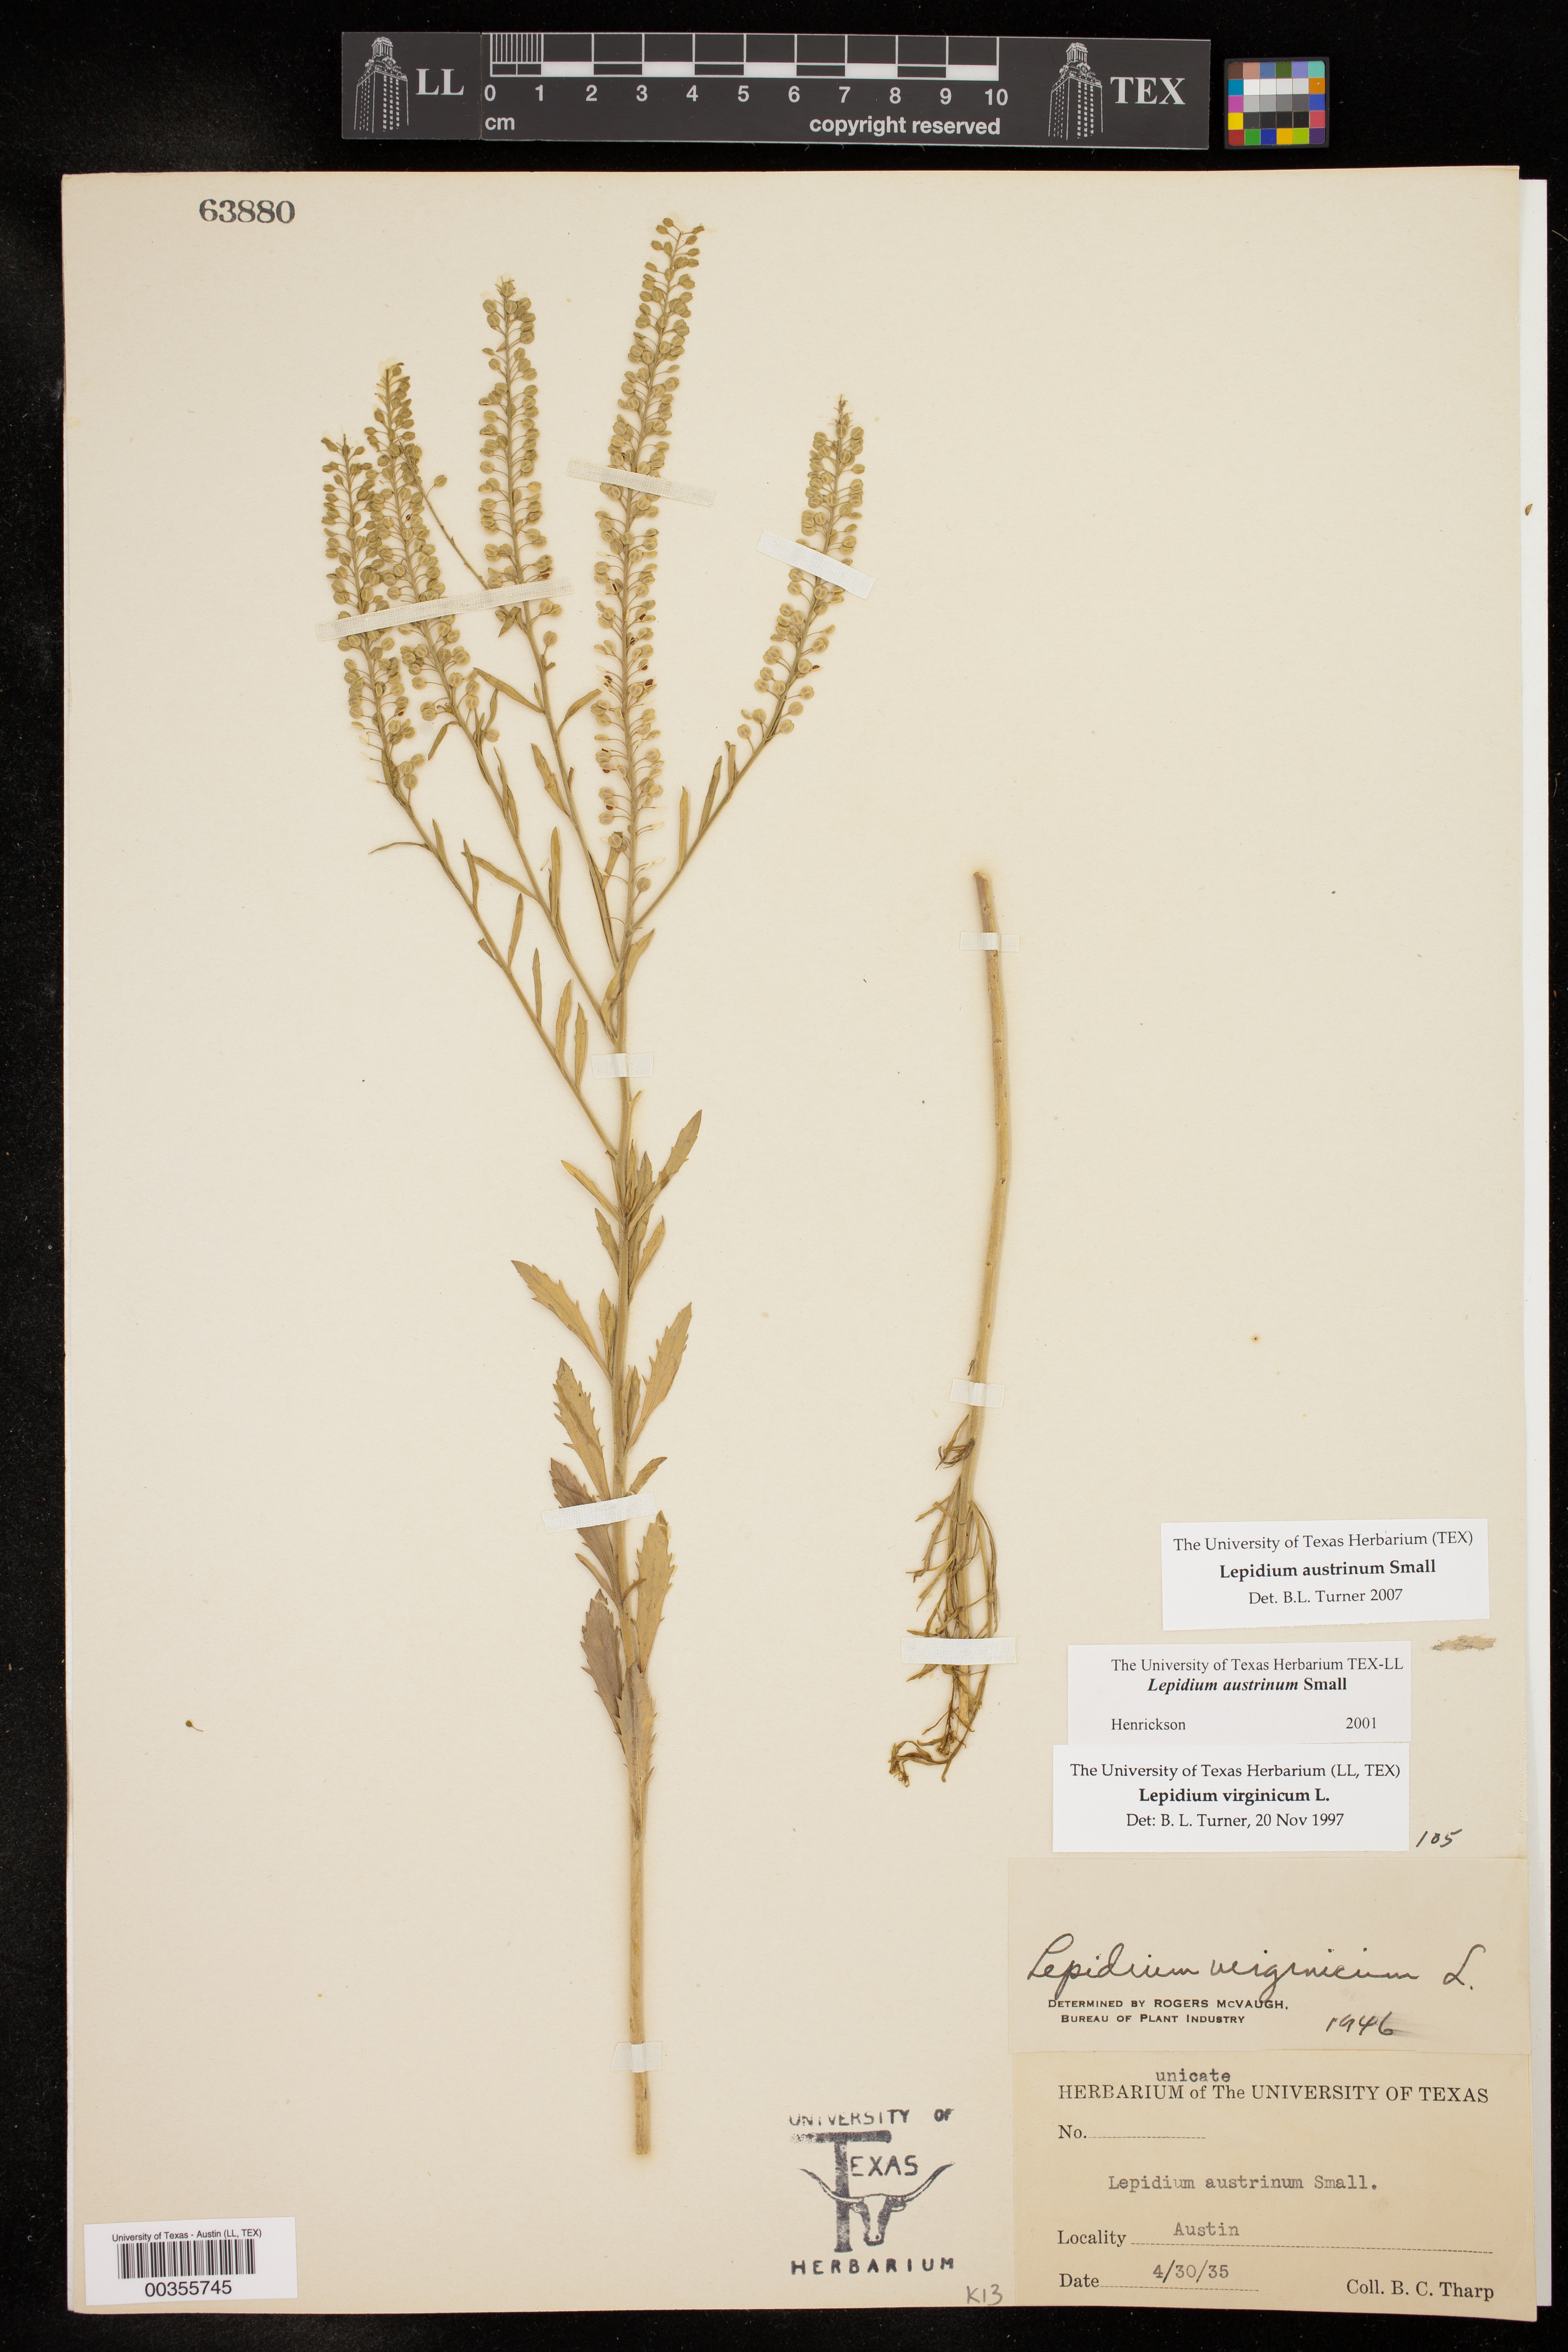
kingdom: Plantae
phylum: Tracheophyta
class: Magnoliopsida
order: Brassicales
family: Brassicaceae
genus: Lepidium
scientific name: Lepidium austrinum
